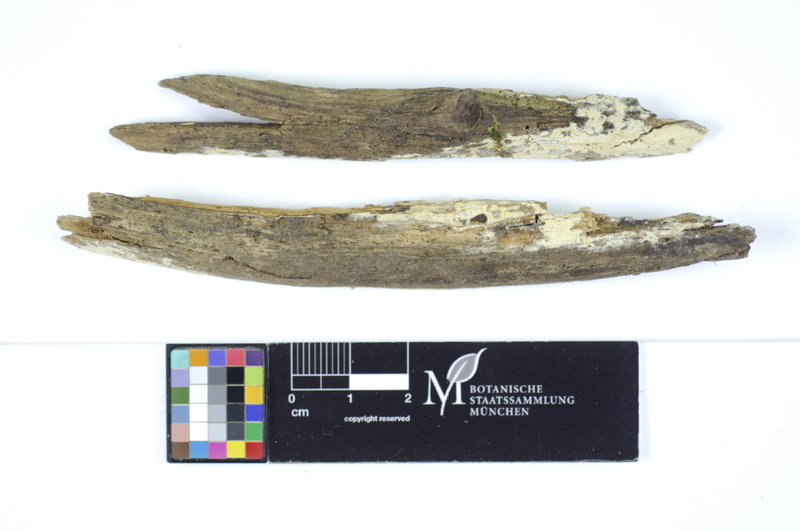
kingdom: Plantae
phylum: Tracheophyta
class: Pinopsida
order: Pinales
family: Pinaceae
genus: Picea
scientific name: Picea
